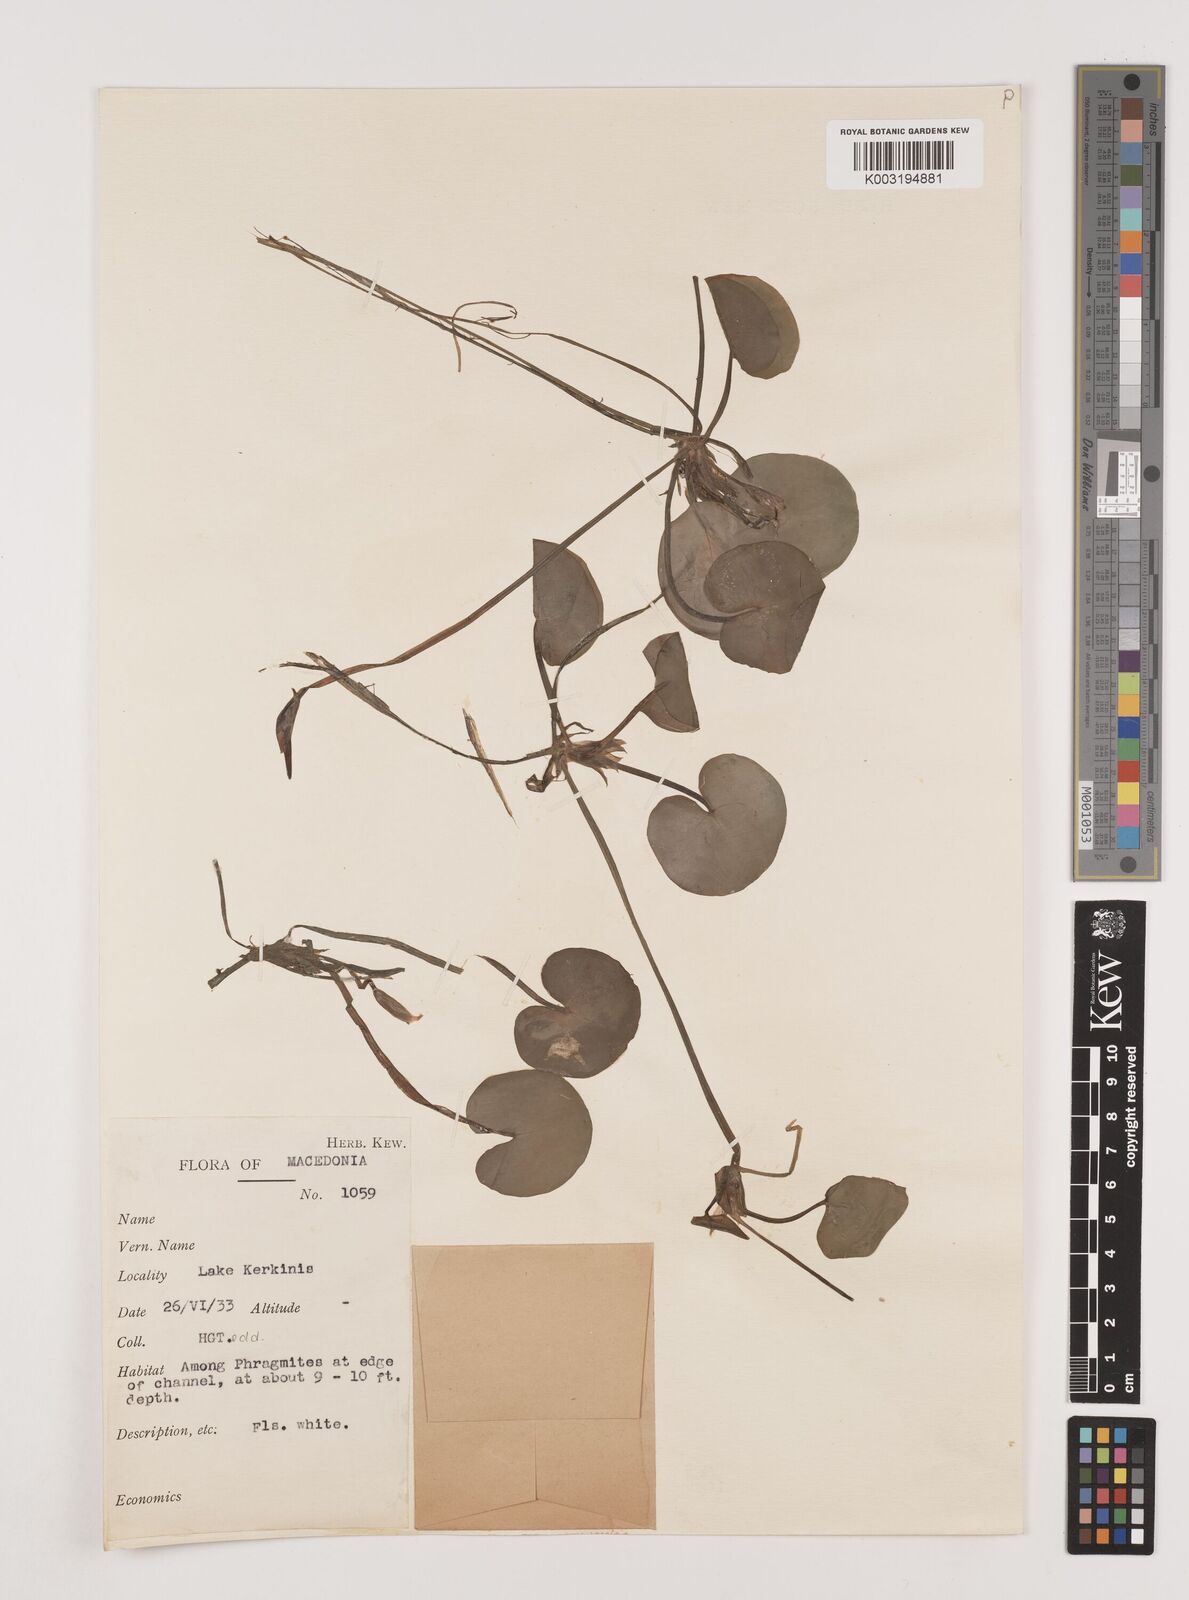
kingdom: Plantae
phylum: Tracheophyta
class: Liliopsida
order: Alismatales
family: Hydrocharitaceae
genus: Hydrocharis
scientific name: Hydrocharis morsus-ranae
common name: Frogbit
